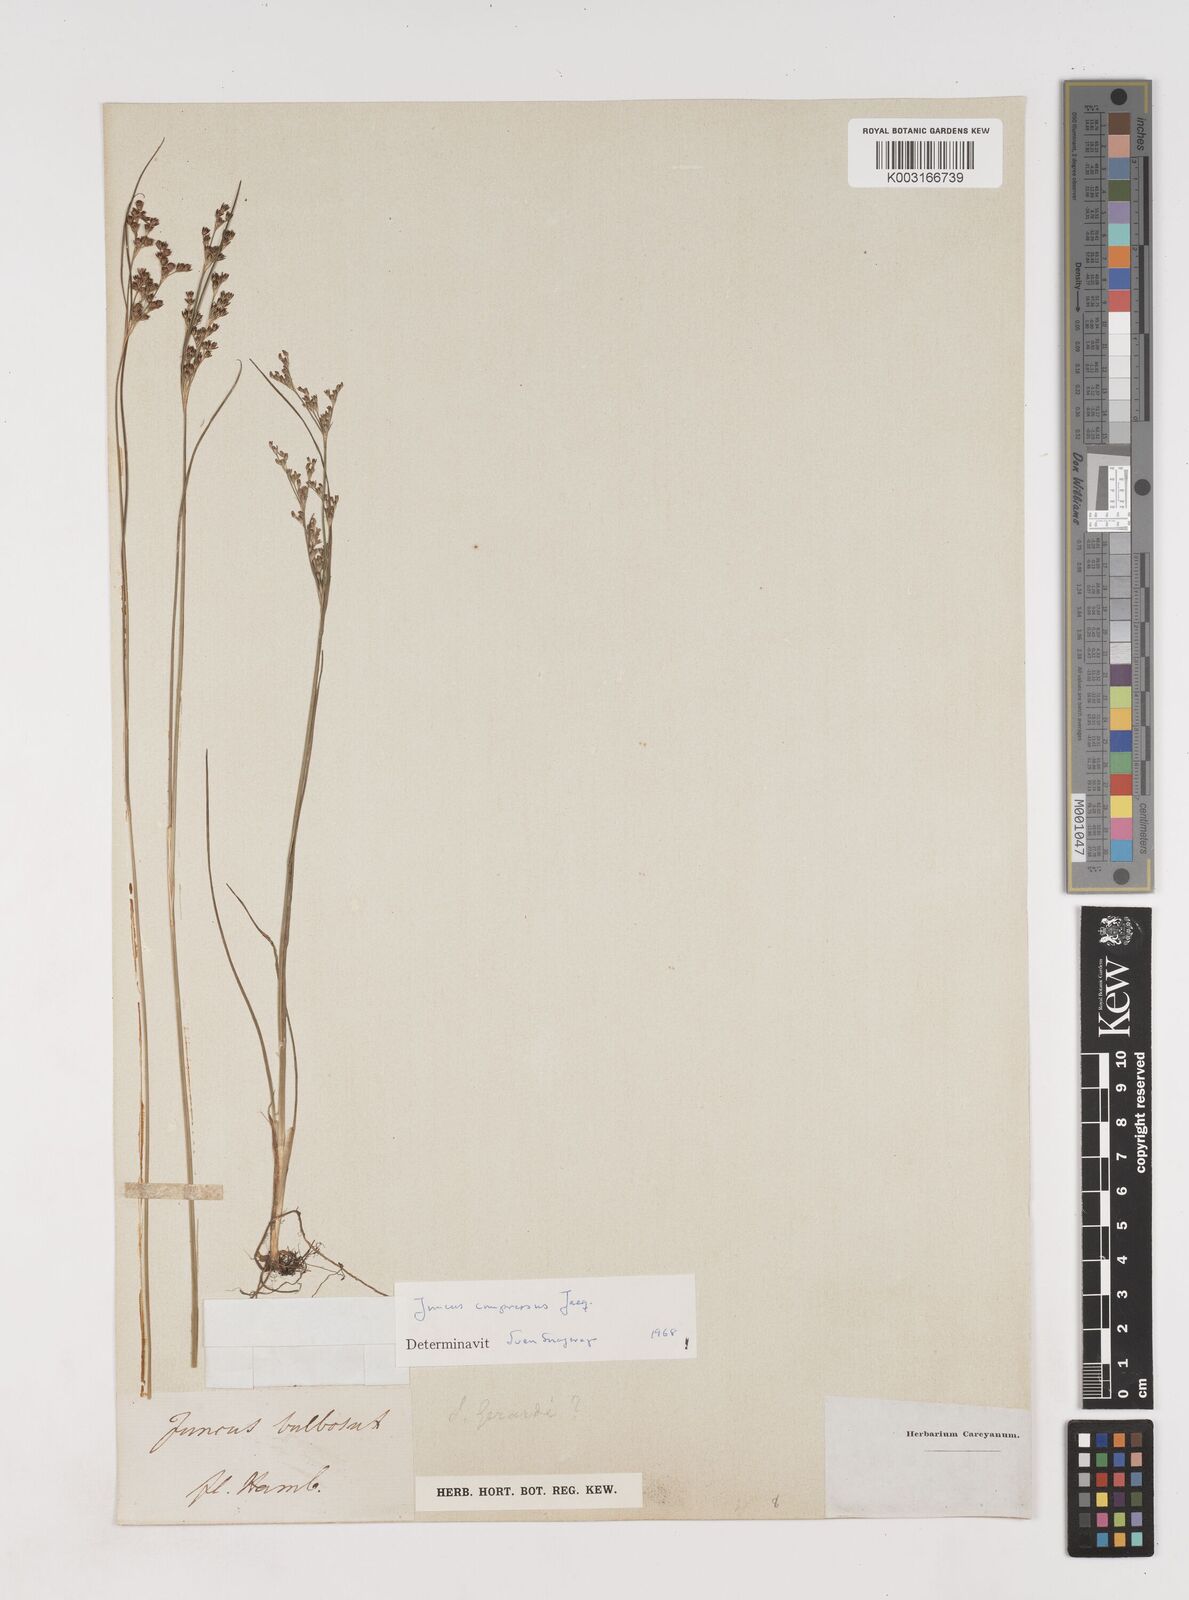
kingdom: Plantae
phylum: Tracheophyta
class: Liliopsida
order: Poales
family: Juncaceae
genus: Juncus
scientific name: Juncus
